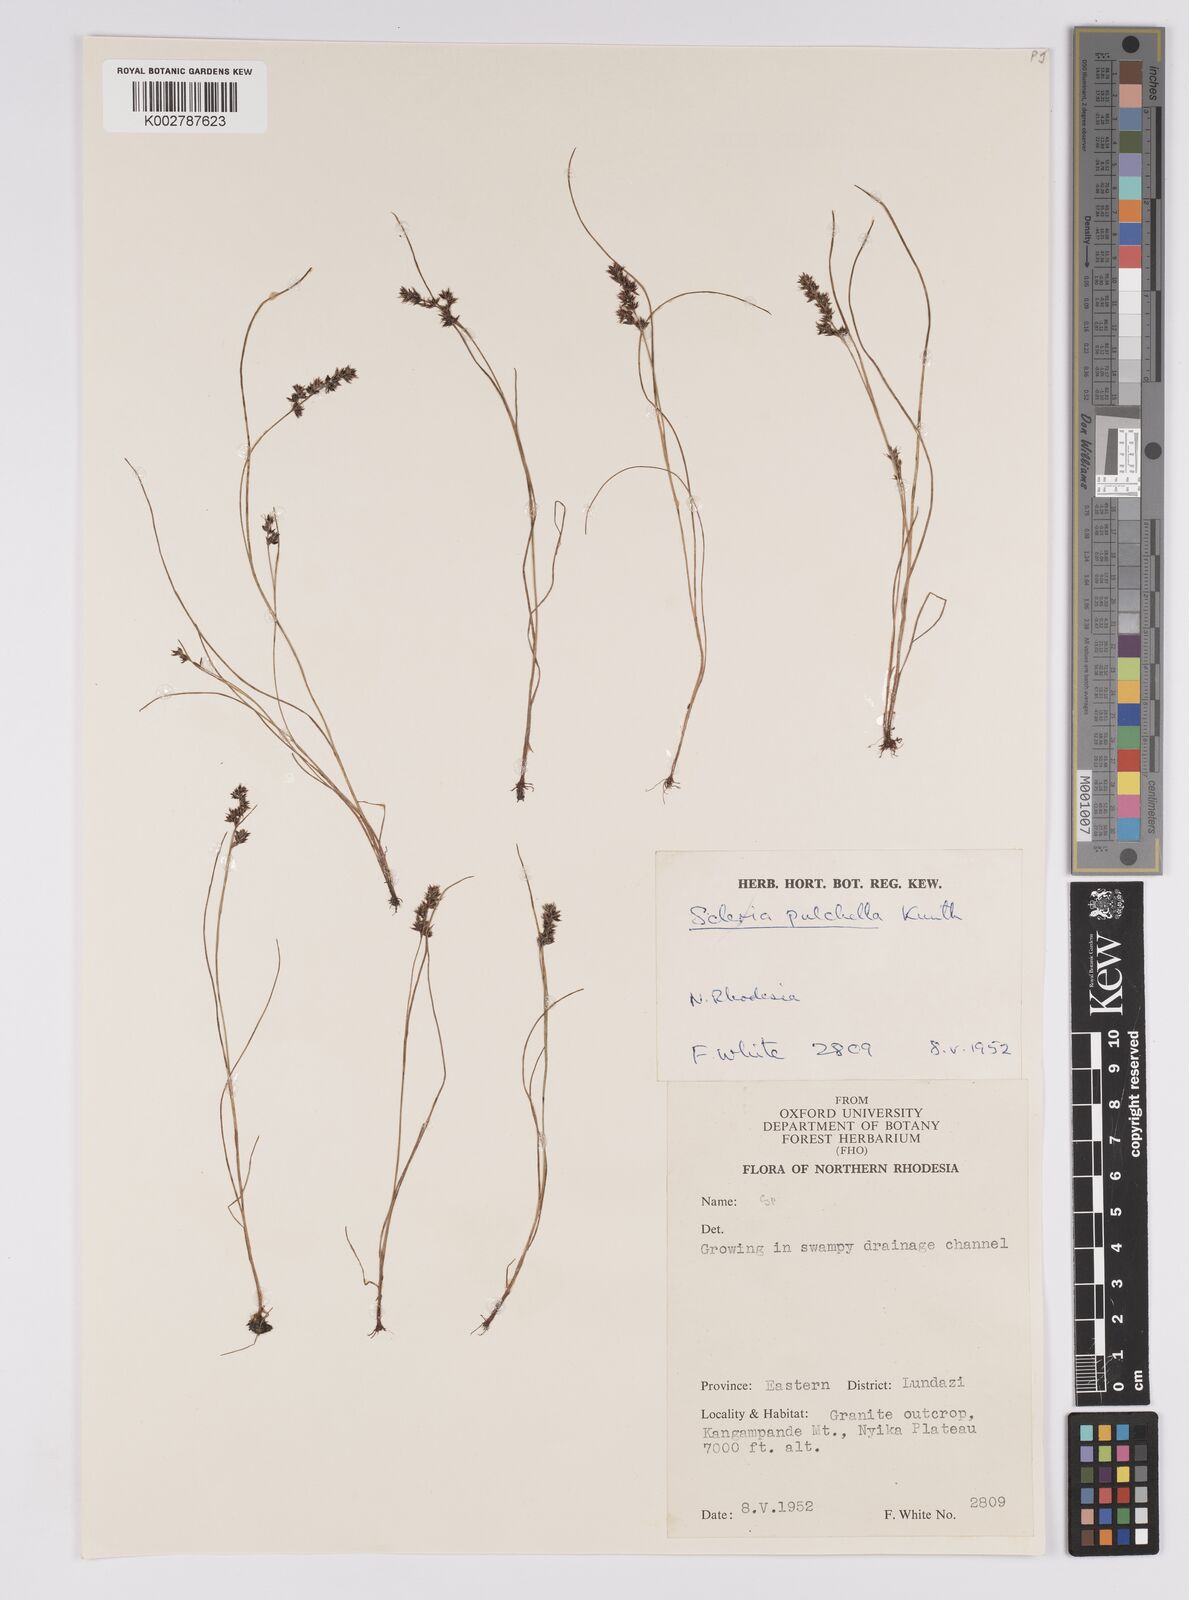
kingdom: Plantae
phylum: Tracheophyta
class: Liliopsida
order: Poales
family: Cyperaceae
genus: Scleria
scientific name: Scleria pulchella
